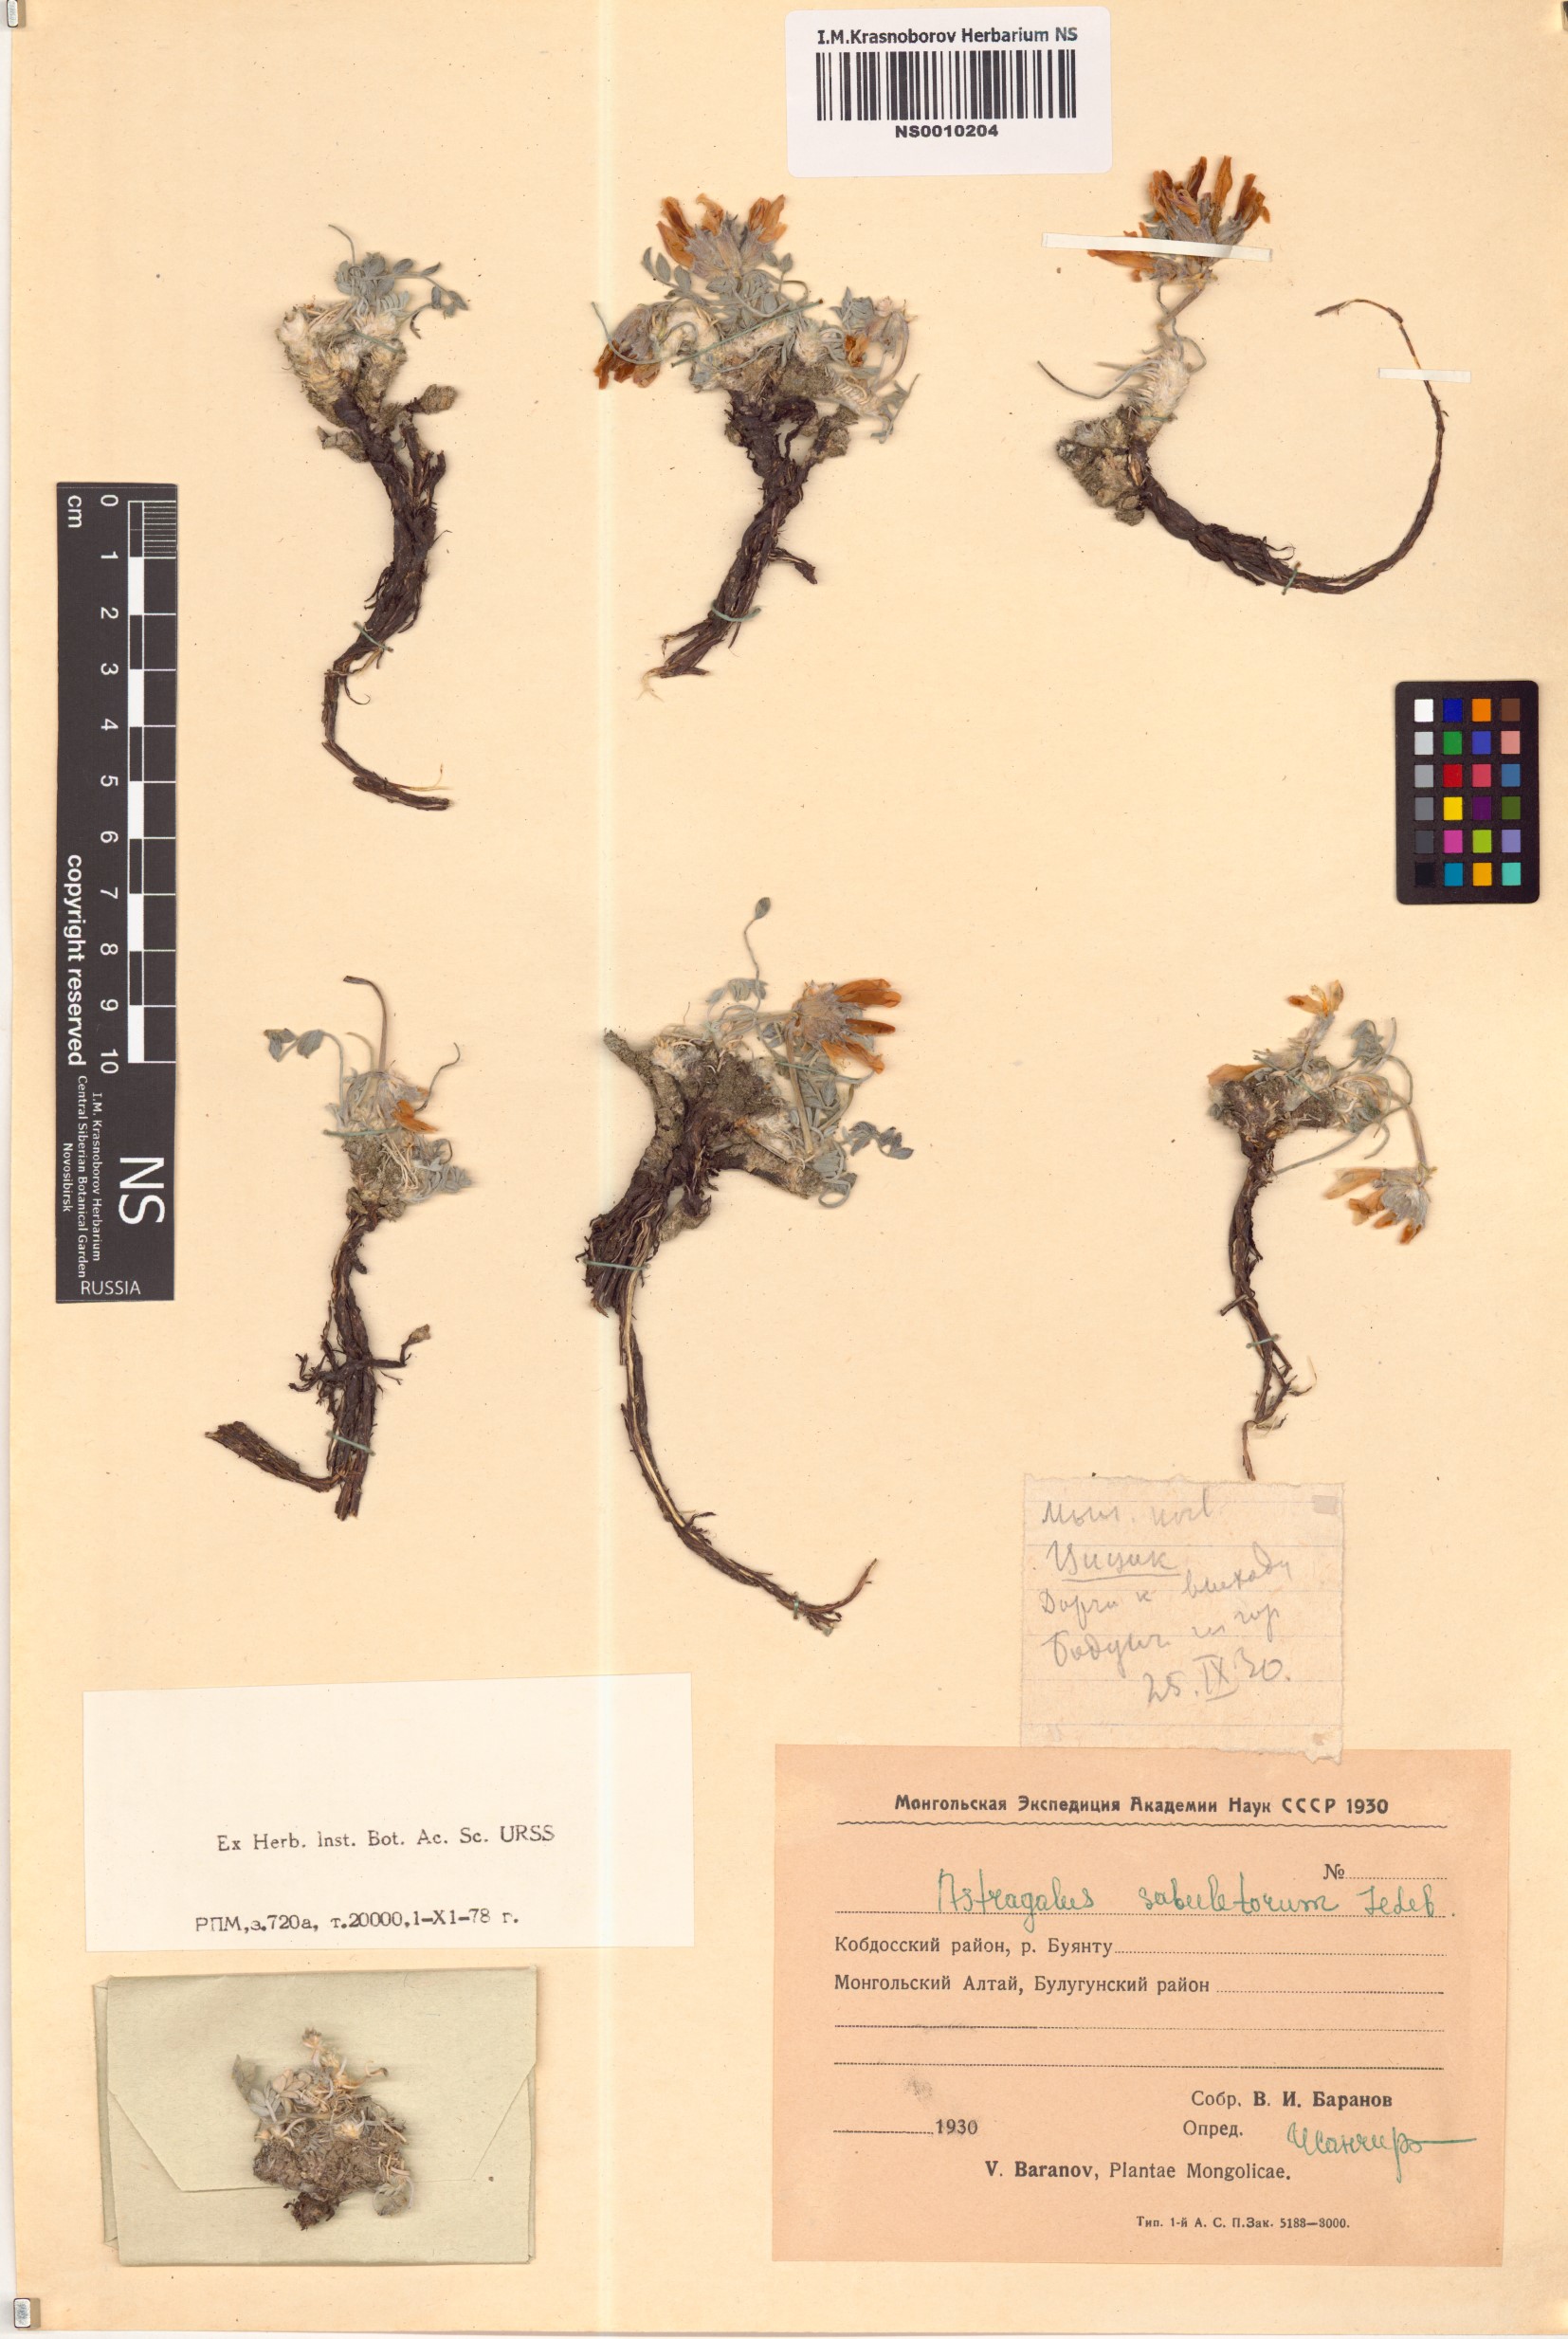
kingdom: Plantae
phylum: Tracheophyta
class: Magnoliopsida
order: Fabales
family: Fabaceae
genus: Astragalus
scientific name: Astragalus sabuletorum
